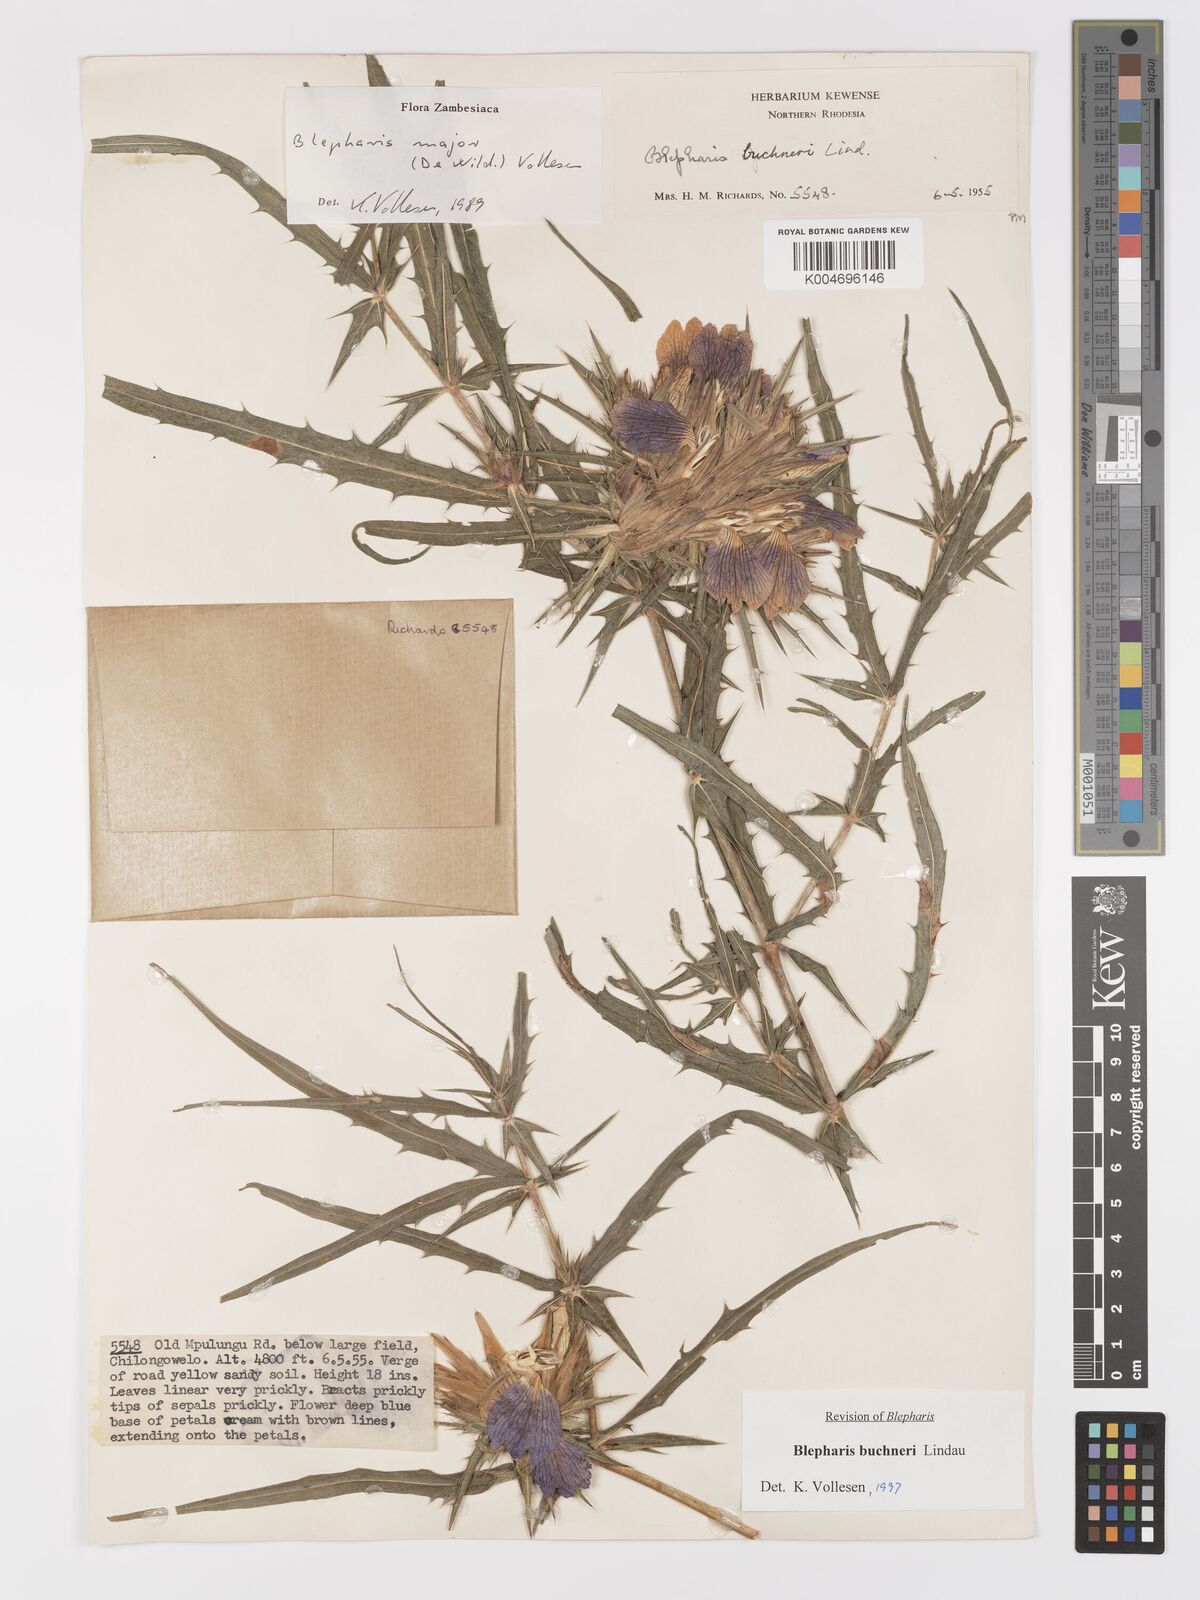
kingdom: Plantae
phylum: Tracheophyta
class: Magnoliopsida
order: Lamiales
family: Acanthaceae
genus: Blepharis
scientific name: Blepharis buchneri
